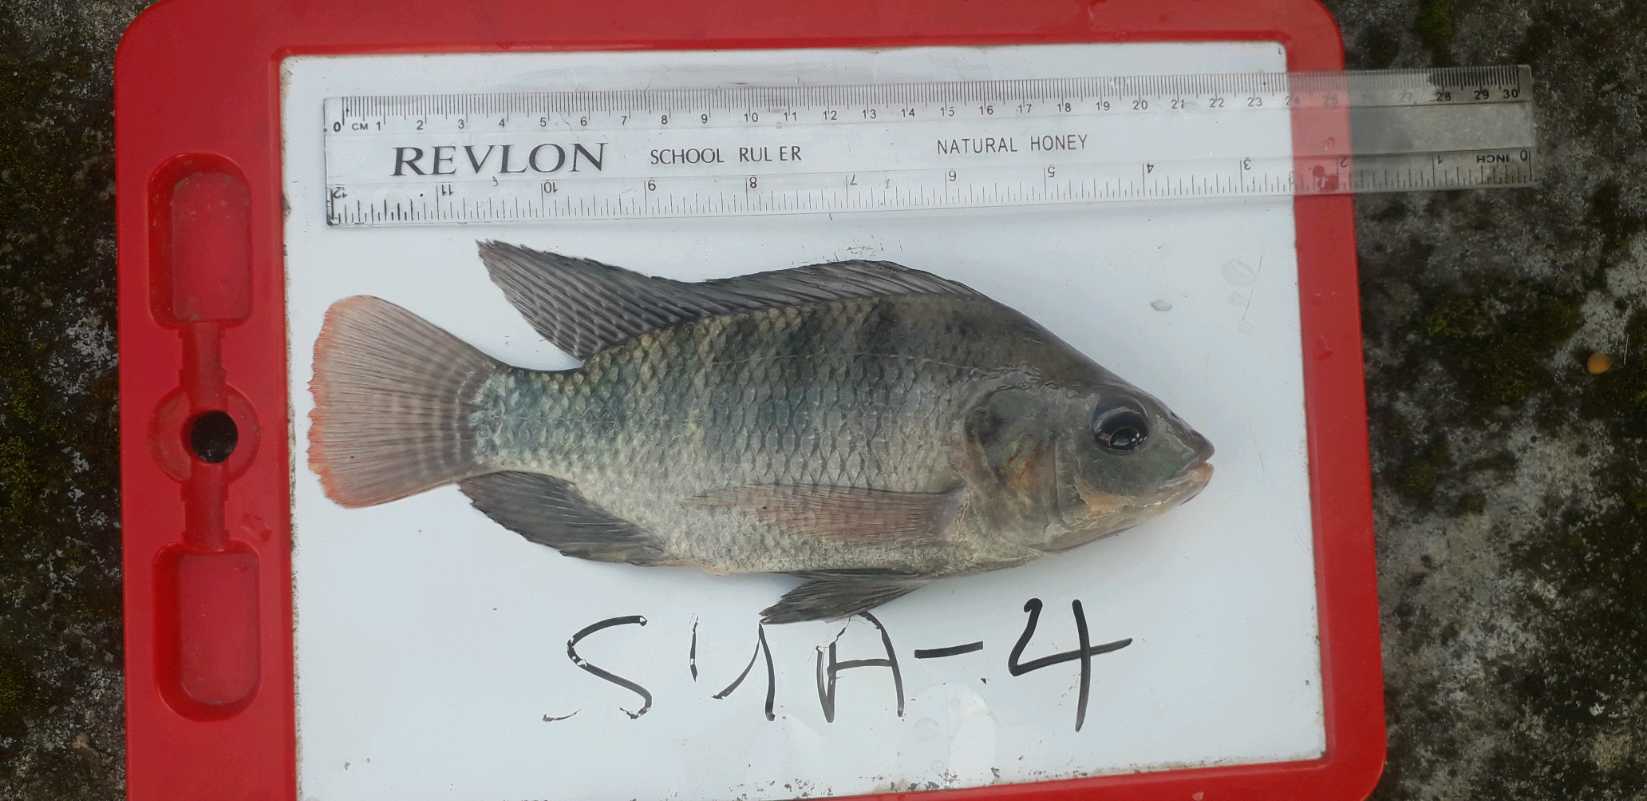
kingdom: Animalia
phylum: Chordata
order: Perciformes
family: Cichlidae
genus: Oreochromis
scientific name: Oreochromis niloticus
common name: Nile tilapia
